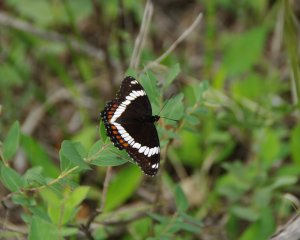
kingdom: Animalia
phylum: Arthropoda
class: Insecta
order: Lepidoptera
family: Nymphalidae
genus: Limenitis
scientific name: Limenitis arthemis
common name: Red-spotted Admiral
